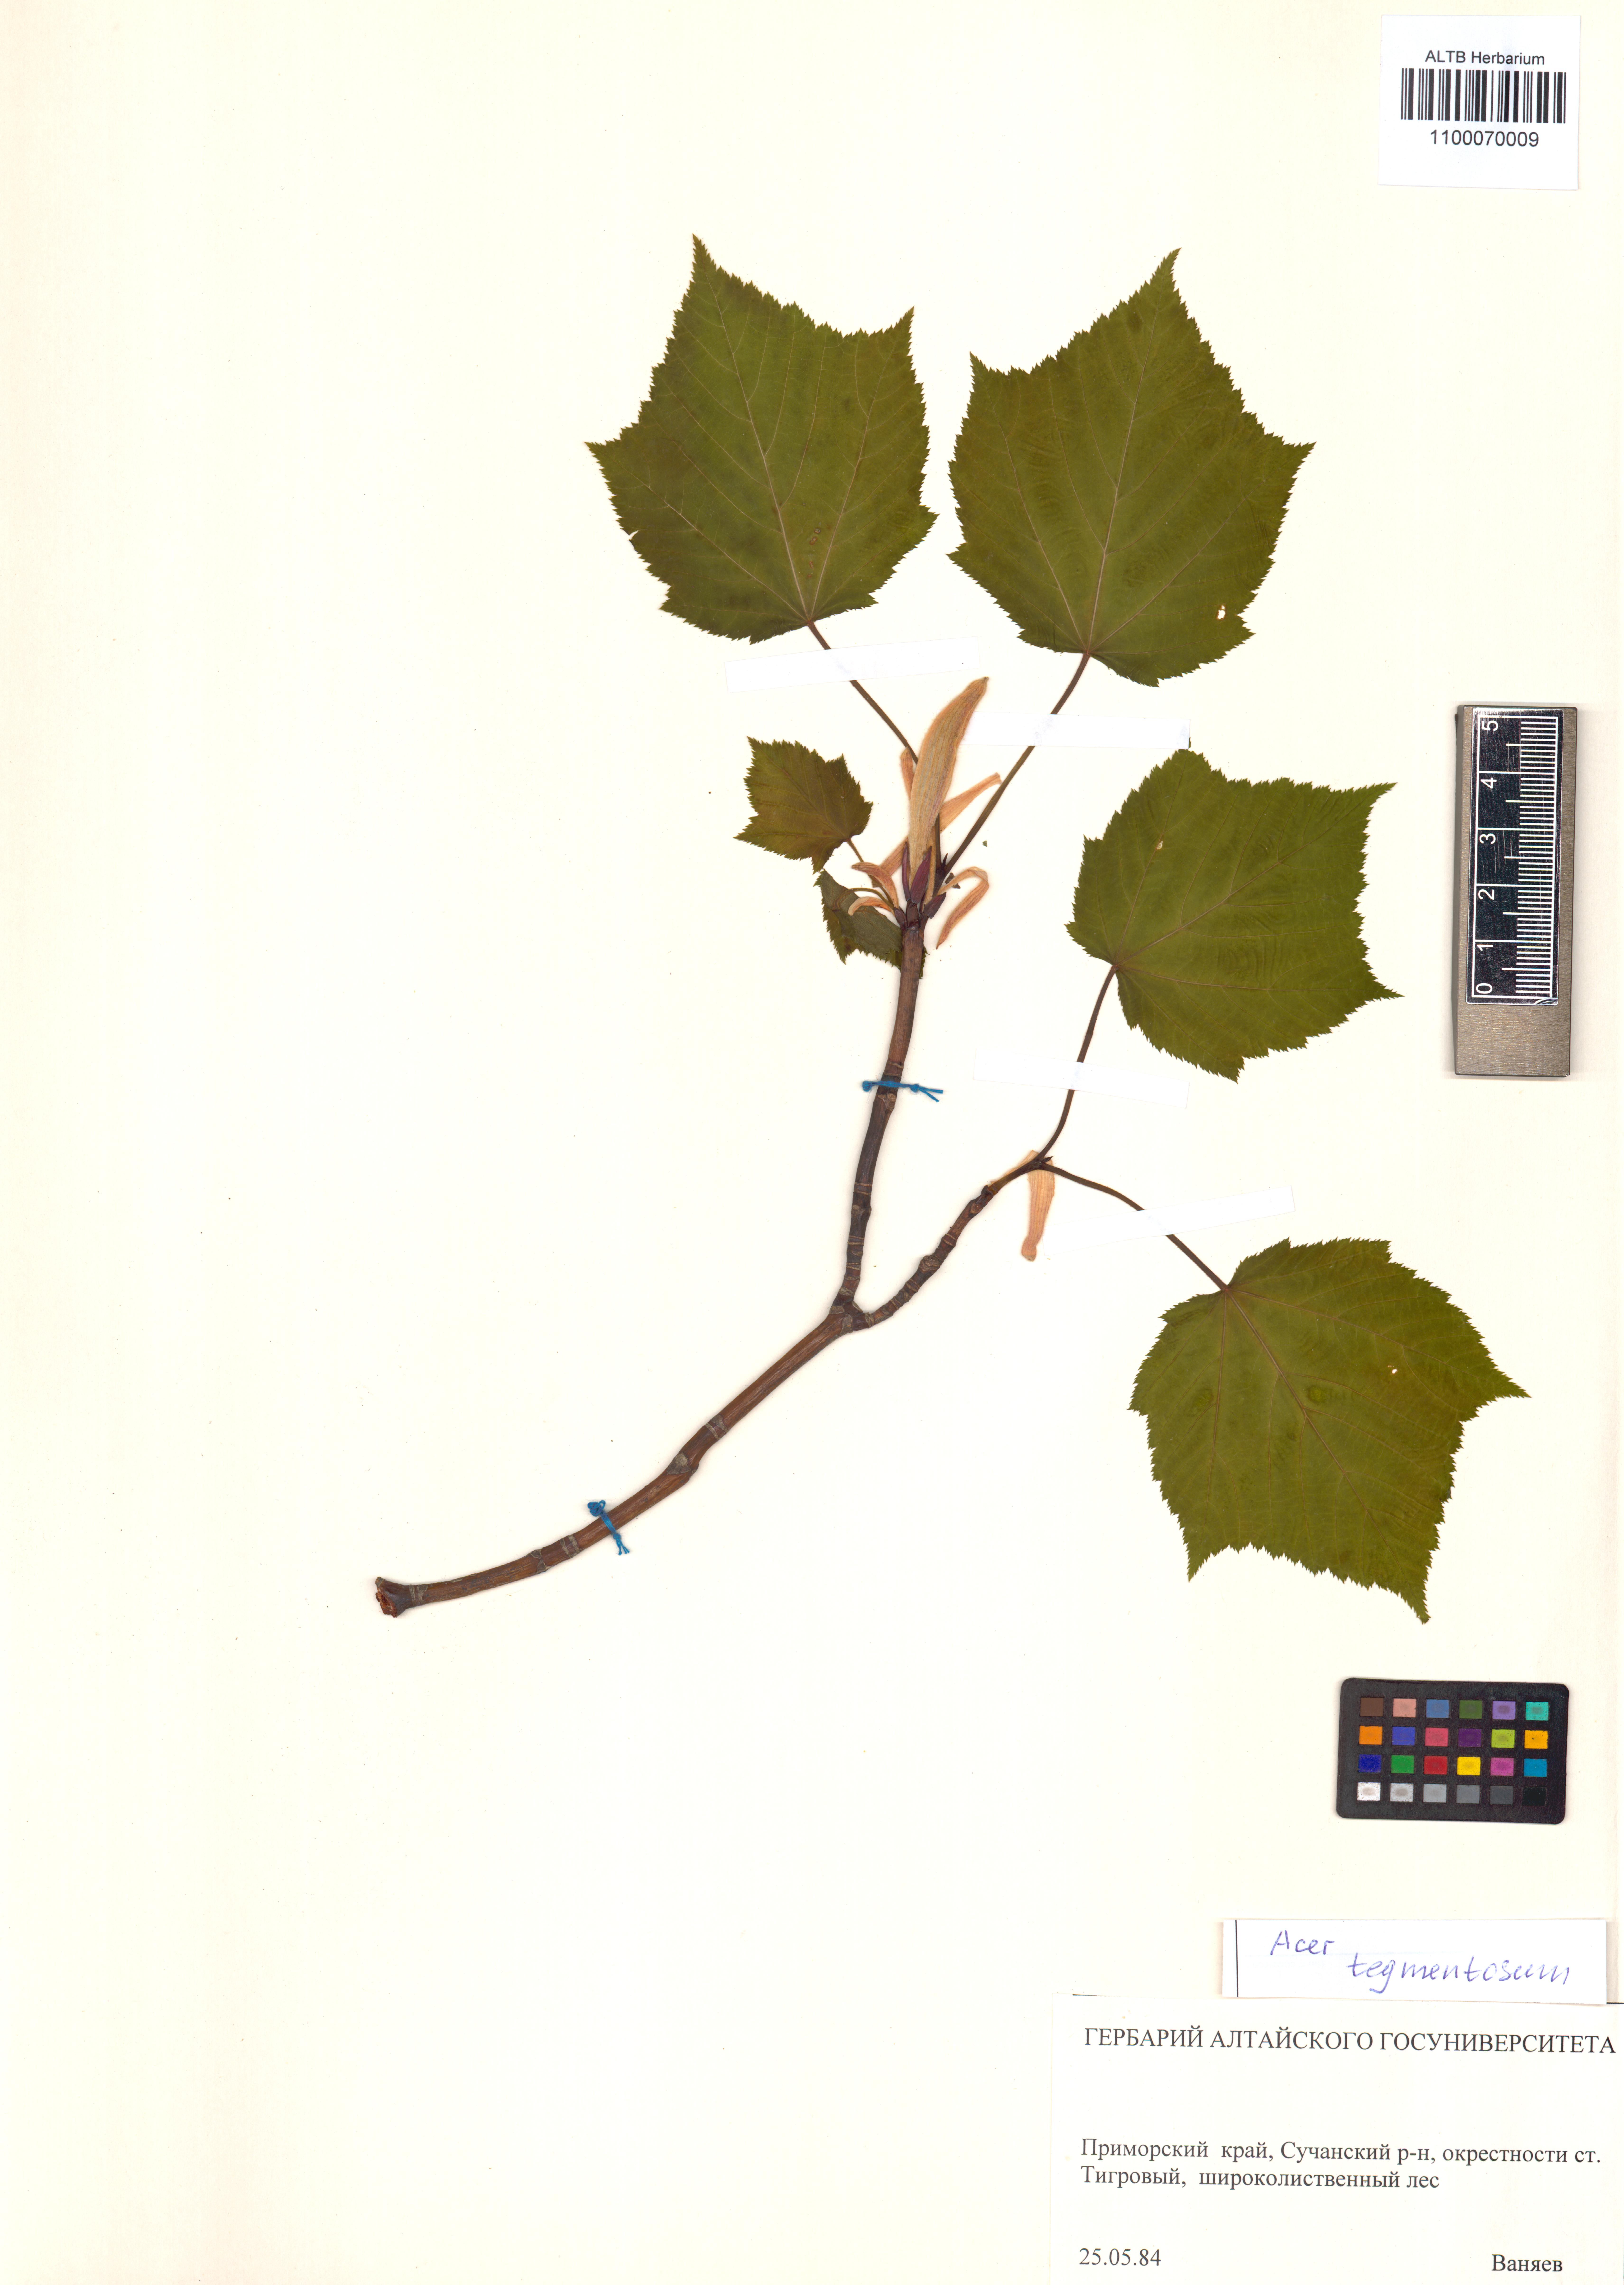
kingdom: Plantae
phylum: Tracheophyta
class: Magnoliopsida
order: Sapindales
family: Sapindaceae
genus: Acer
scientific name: Acer tegmentosum
